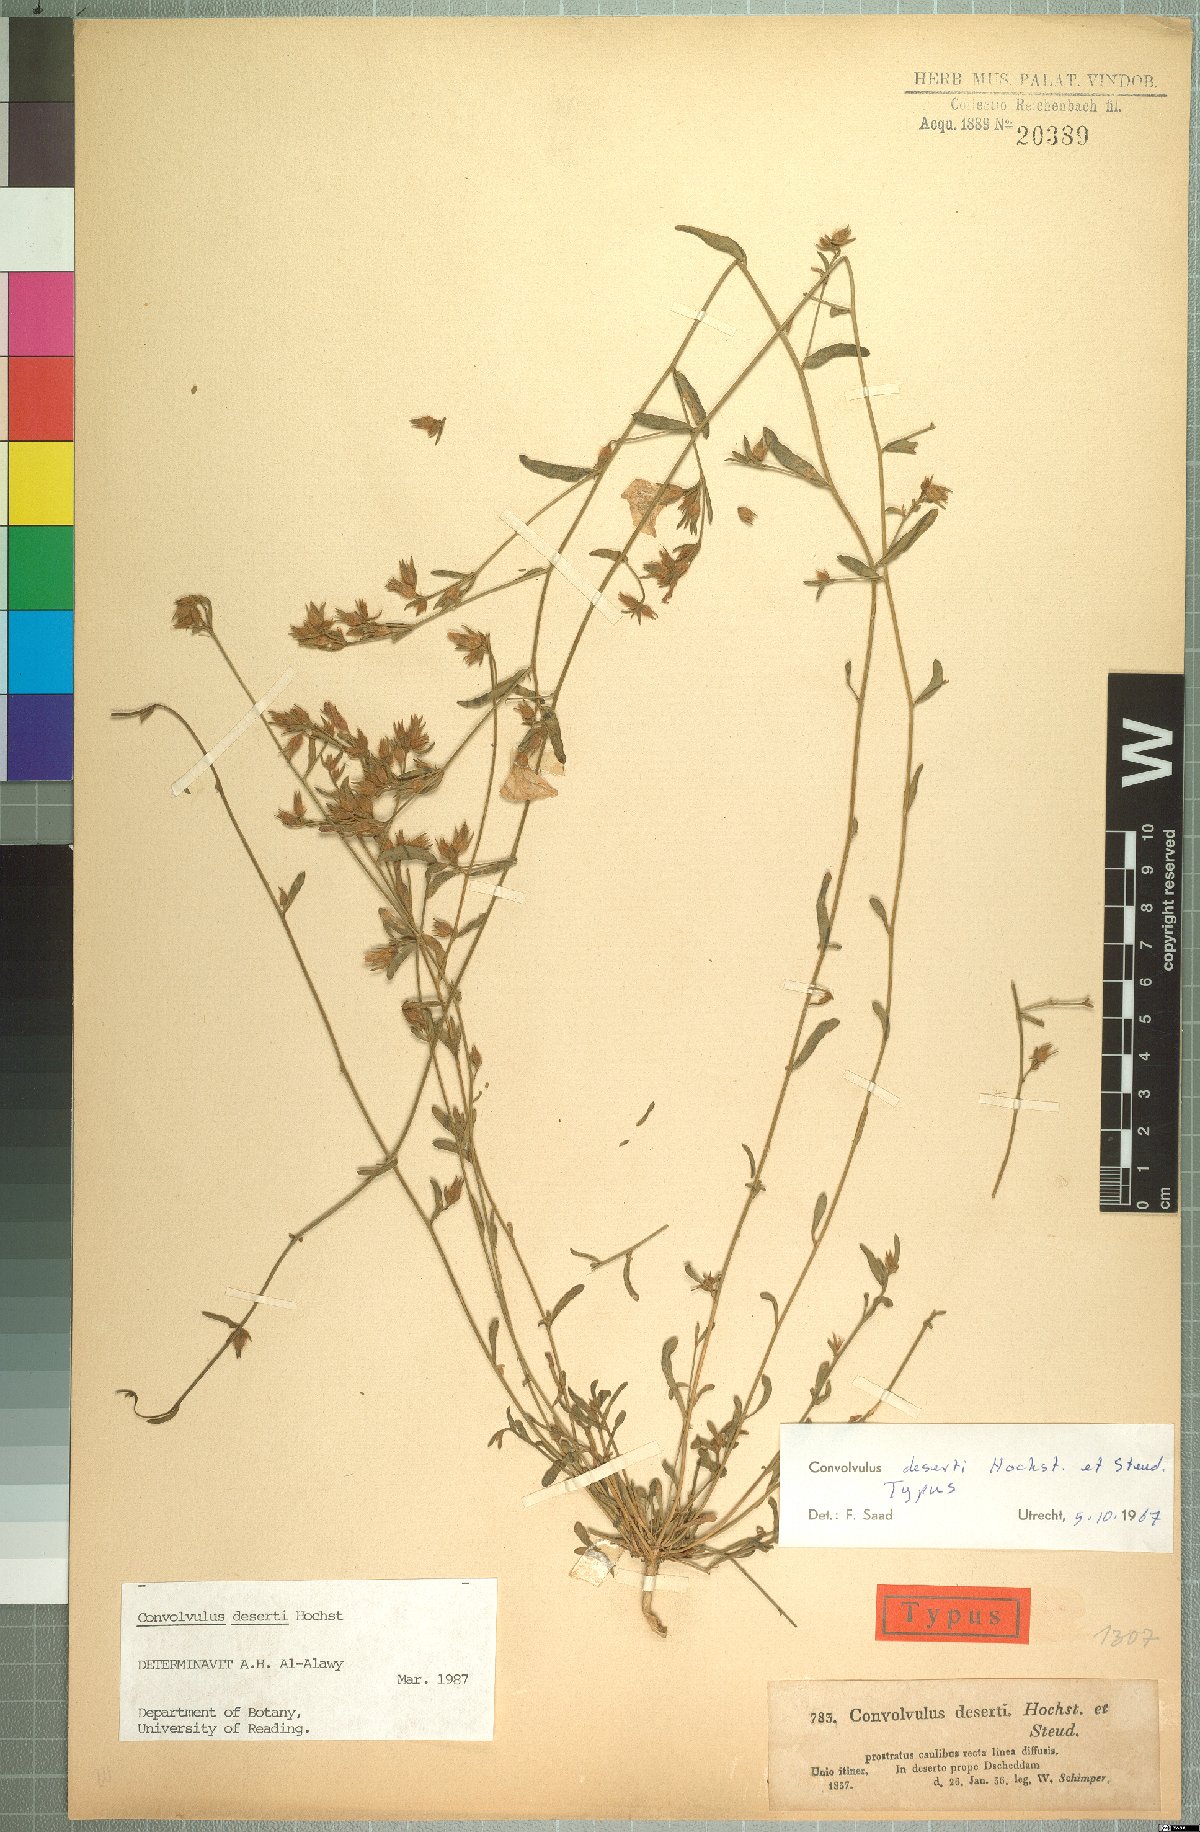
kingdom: Plantae
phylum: Tracheophyta
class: Magnoliopsida
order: Solanales
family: Convolvulaceae
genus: Convolvulus
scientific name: Convolvulus prostratus
